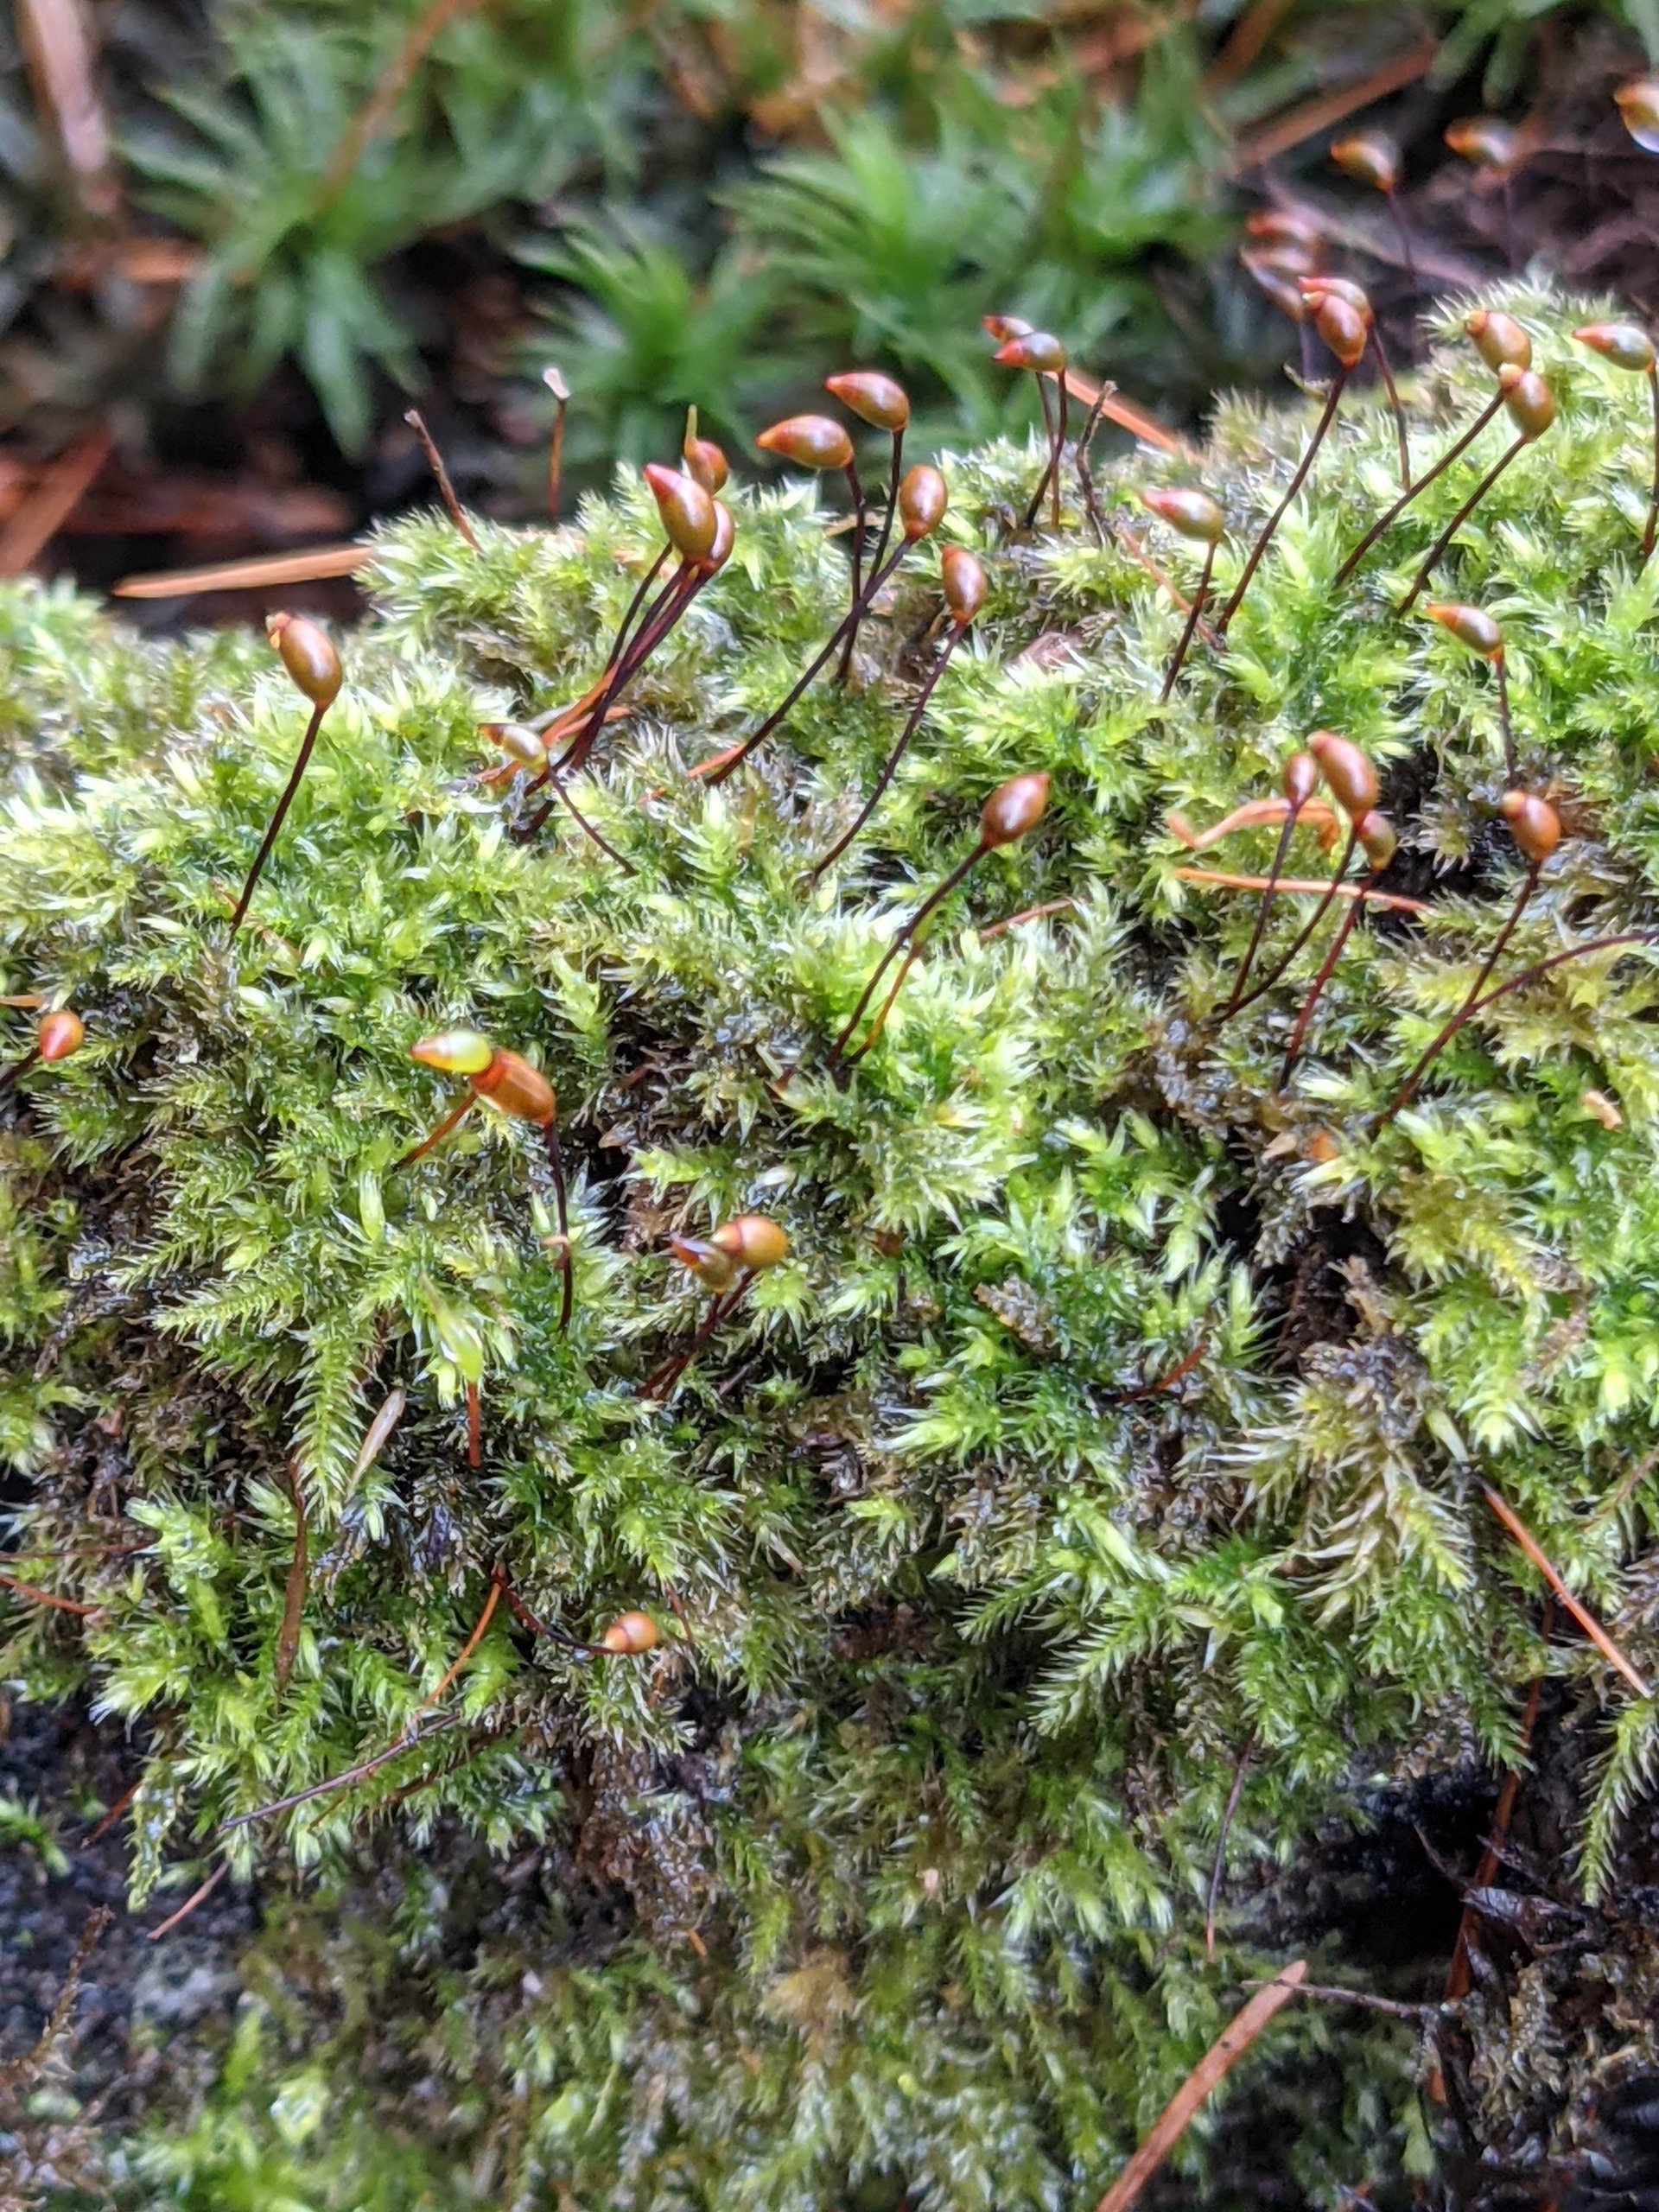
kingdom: Plantae
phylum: Bryophyta
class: Bryopsida
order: Hypnales
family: Brachytheciaceae
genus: Brachytheciastrum
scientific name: Brachytheciastrum velutinum
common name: Fløjls-kortkapsel
